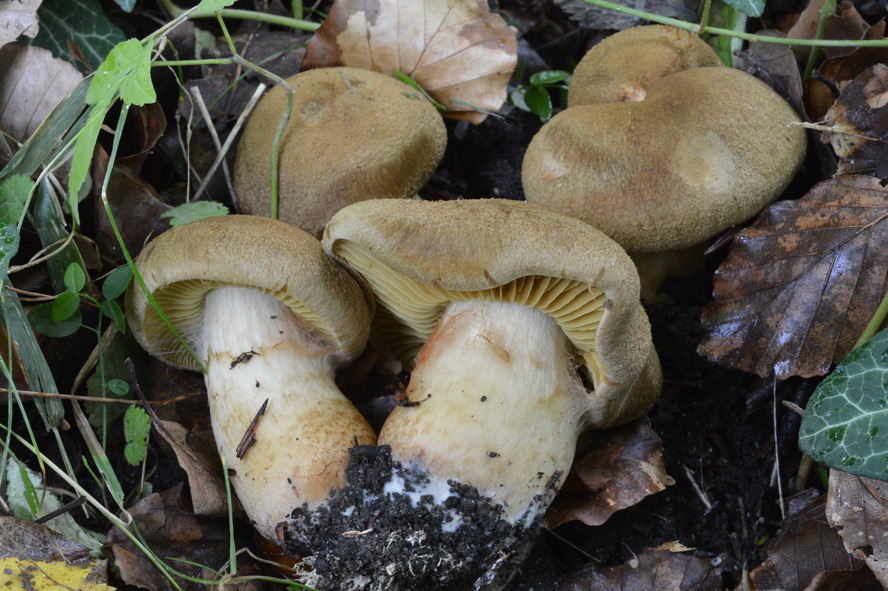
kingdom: Fungi
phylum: Basidiomycota
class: Agaricomycetes
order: Agaricales
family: Cortinariaceae
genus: Cortinarius
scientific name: Cortinarius cotoneus
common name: ulden slørhat
